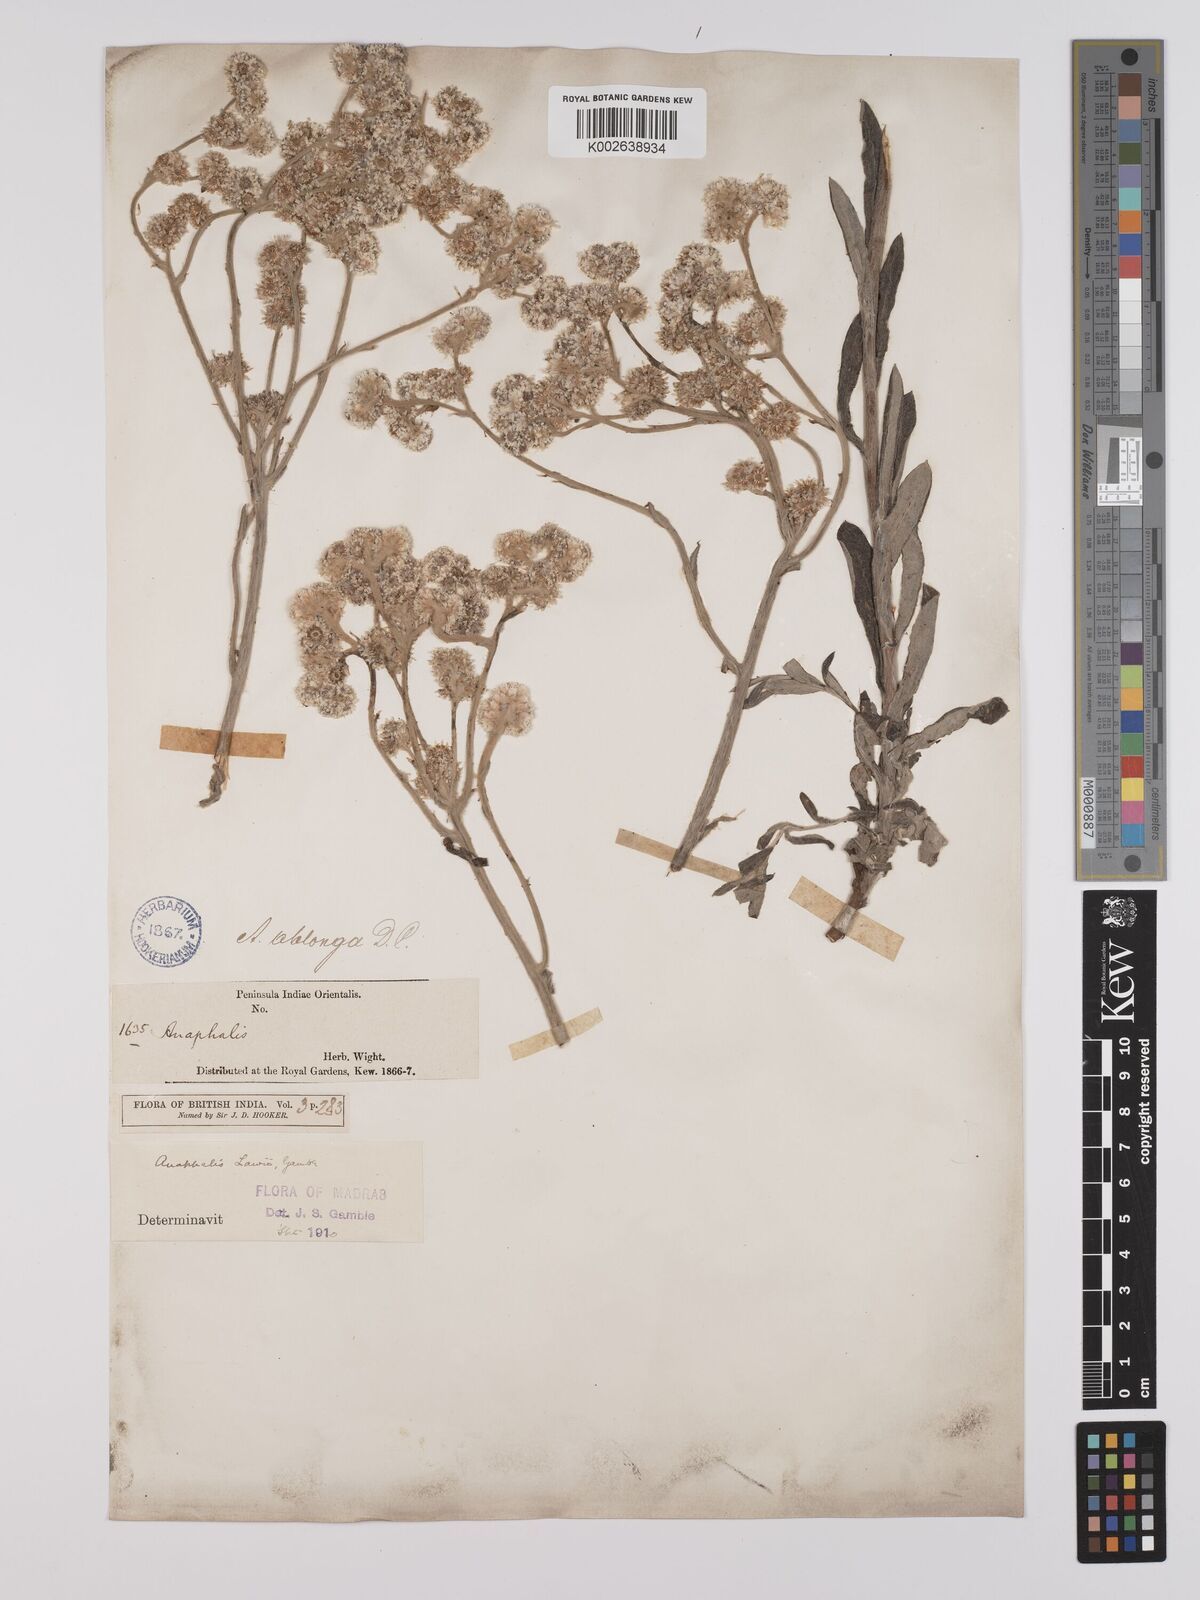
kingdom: Plantae
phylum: Tracheophyta
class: Magnoliopsida
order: Asterales
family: Asteraceae
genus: Anaphalis
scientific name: Anaphalis lawii
